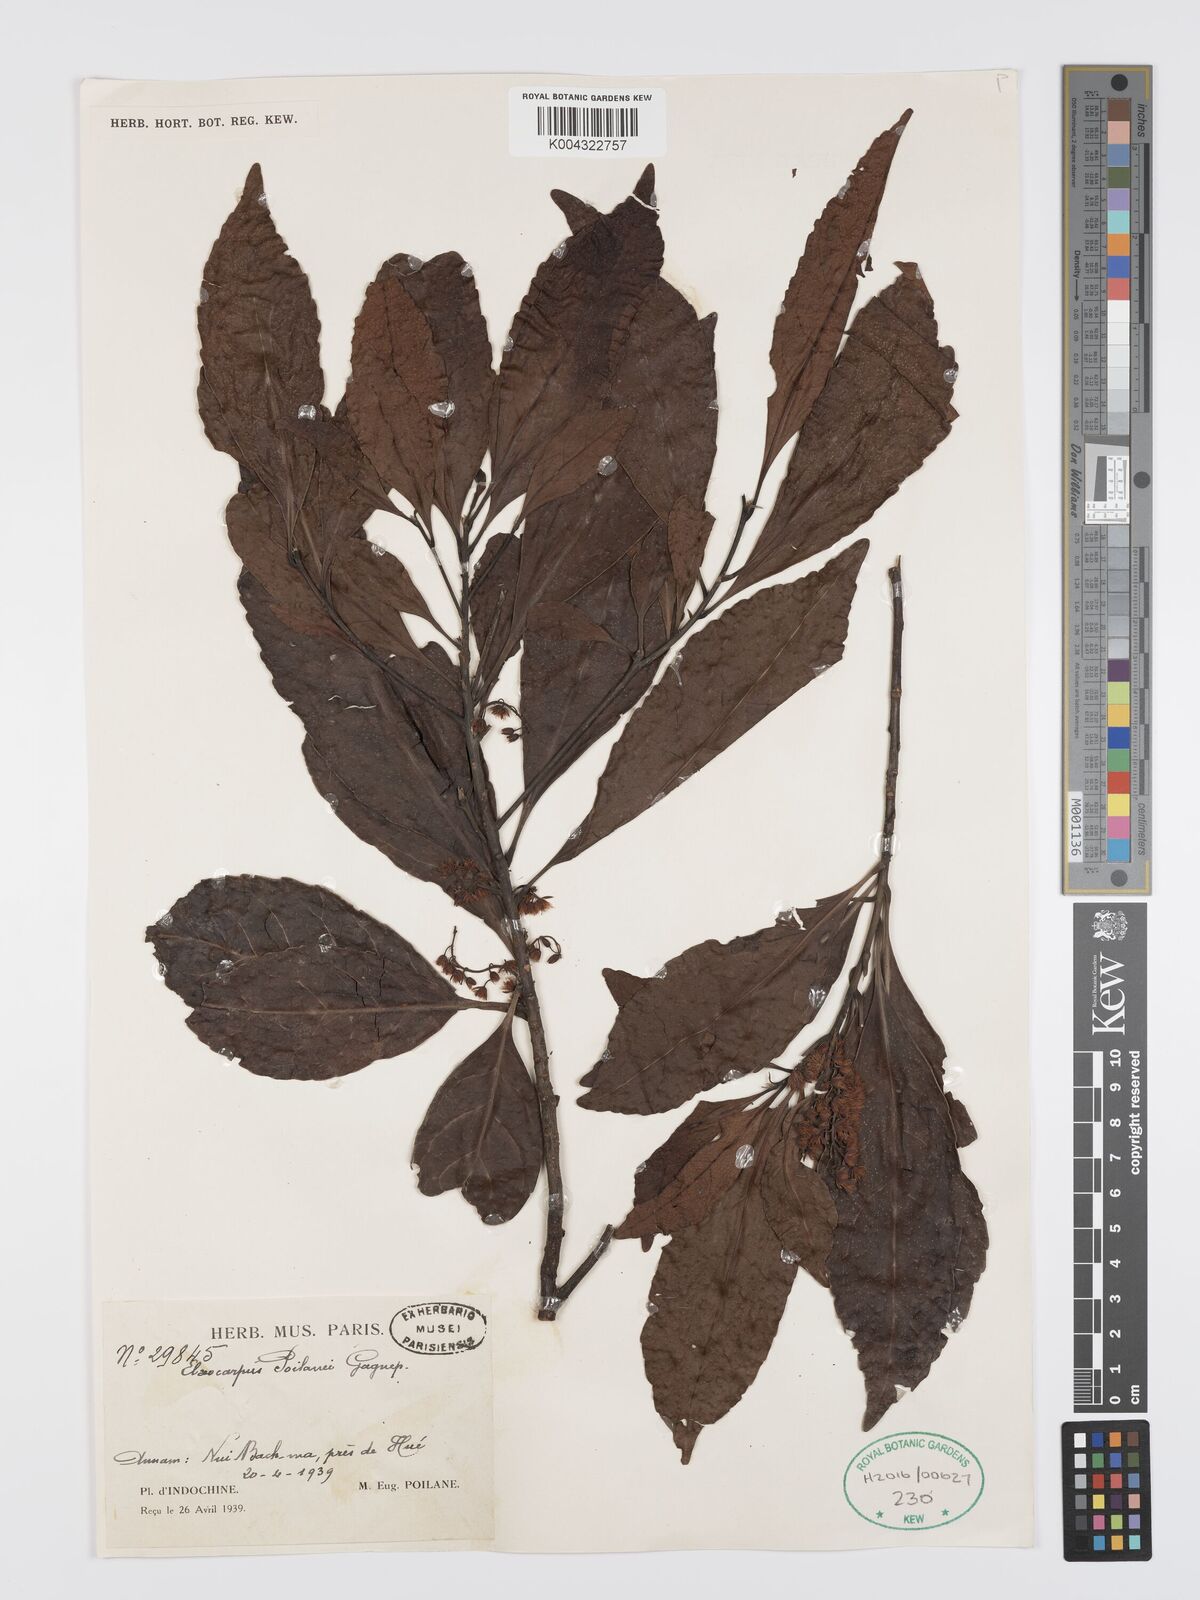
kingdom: Plantae
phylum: Tracheophyta
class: Magnoliopsida
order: Oxalidales
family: Elaeocarpaceae
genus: Elaeocarpus
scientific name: Elaeocarpus poilanei
